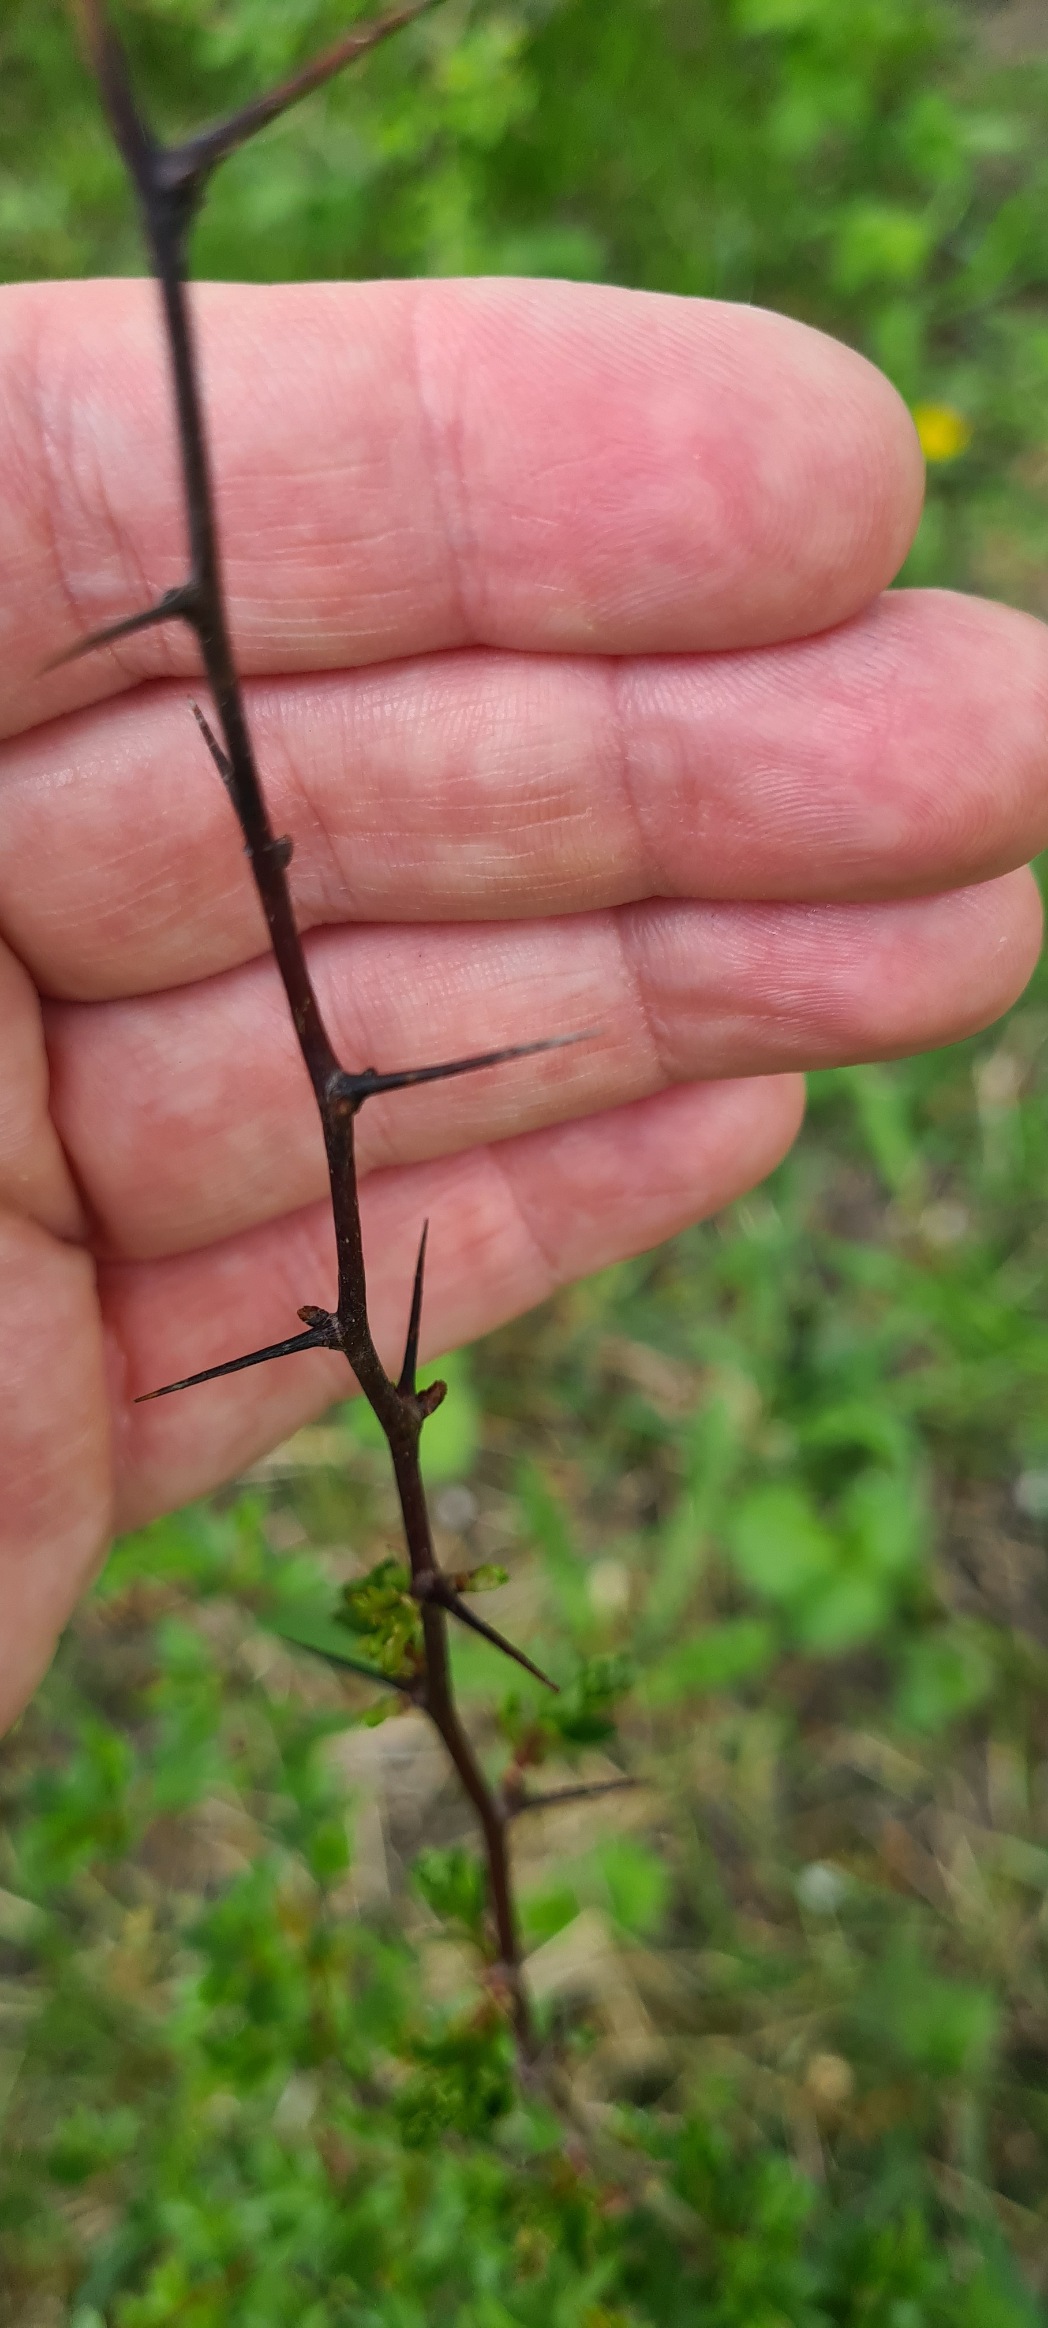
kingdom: Plantae
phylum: Tracheophyta
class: Magnoliopsida
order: Rosales
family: Rosaceae
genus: Crataegus
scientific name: Crataegus monogyna
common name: Engriflet hvidtjørn
